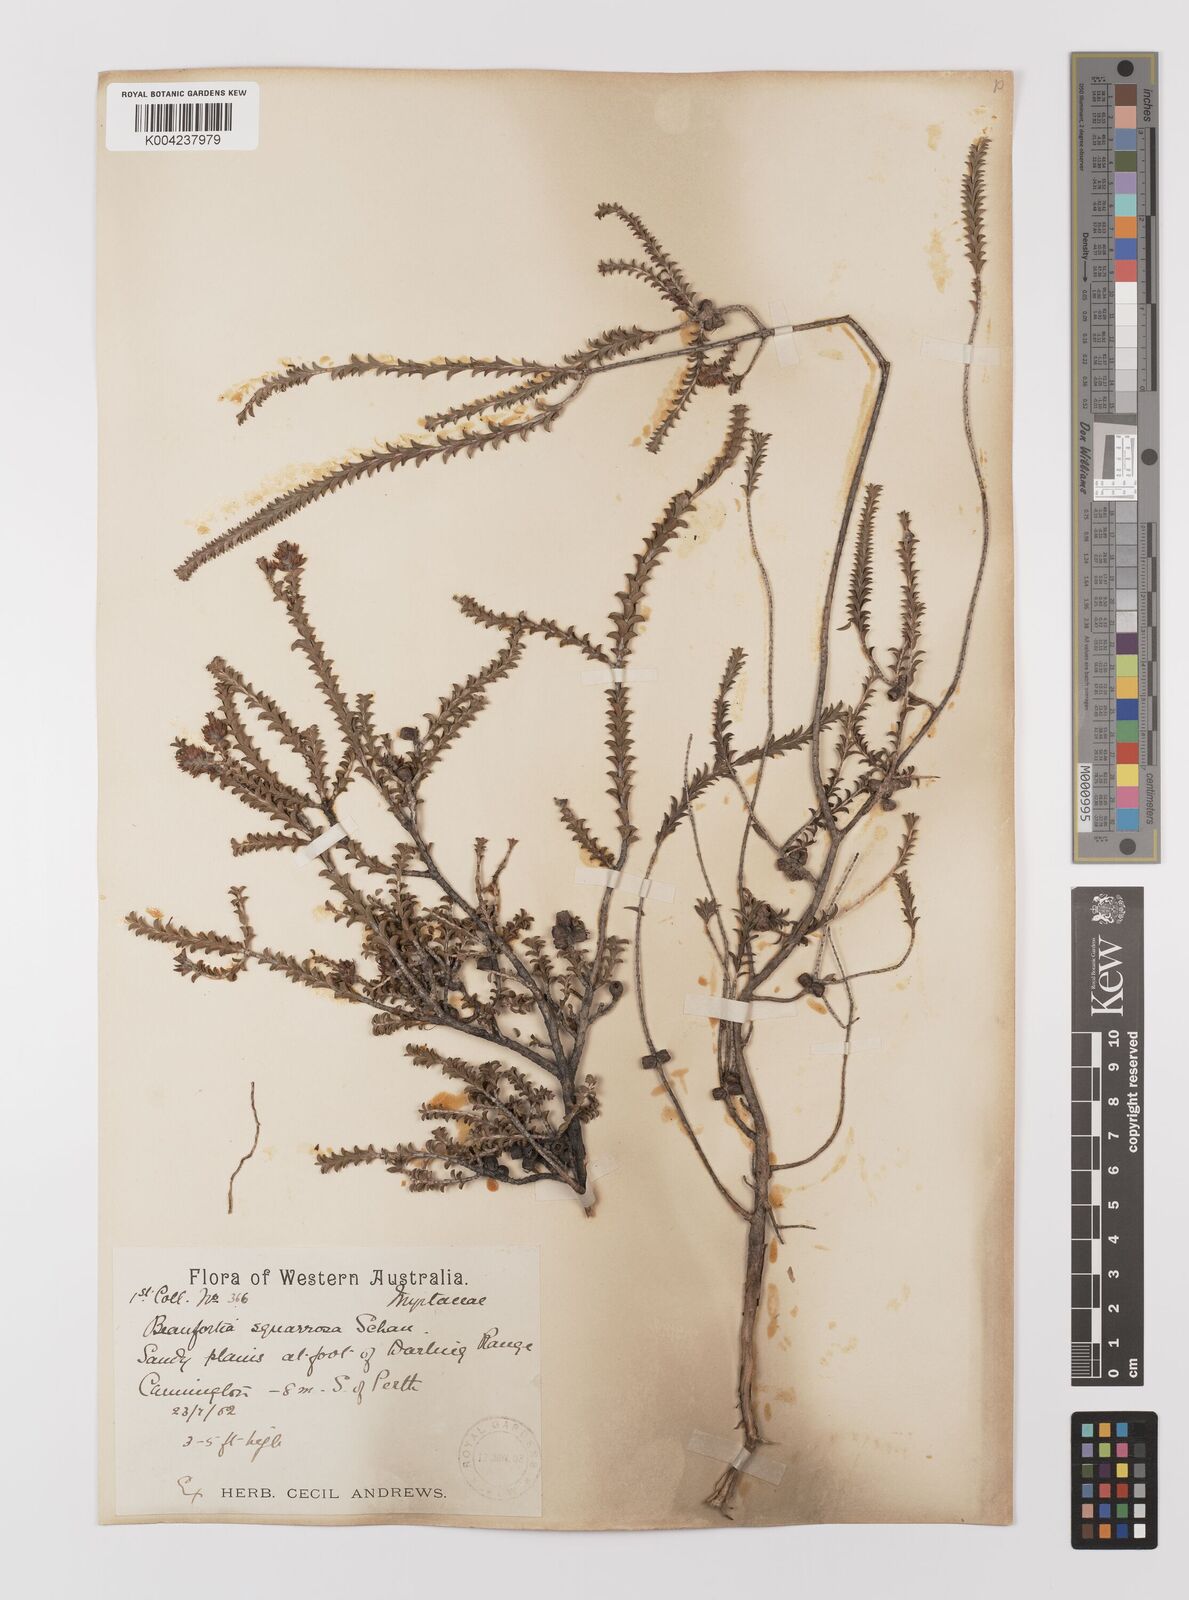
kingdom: Plantae
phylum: Tracheophyta
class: Magnoliopsida
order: Myrtales
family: Myrtaceae
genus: Melaleuca
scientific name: Melaleuca pulcherrima
